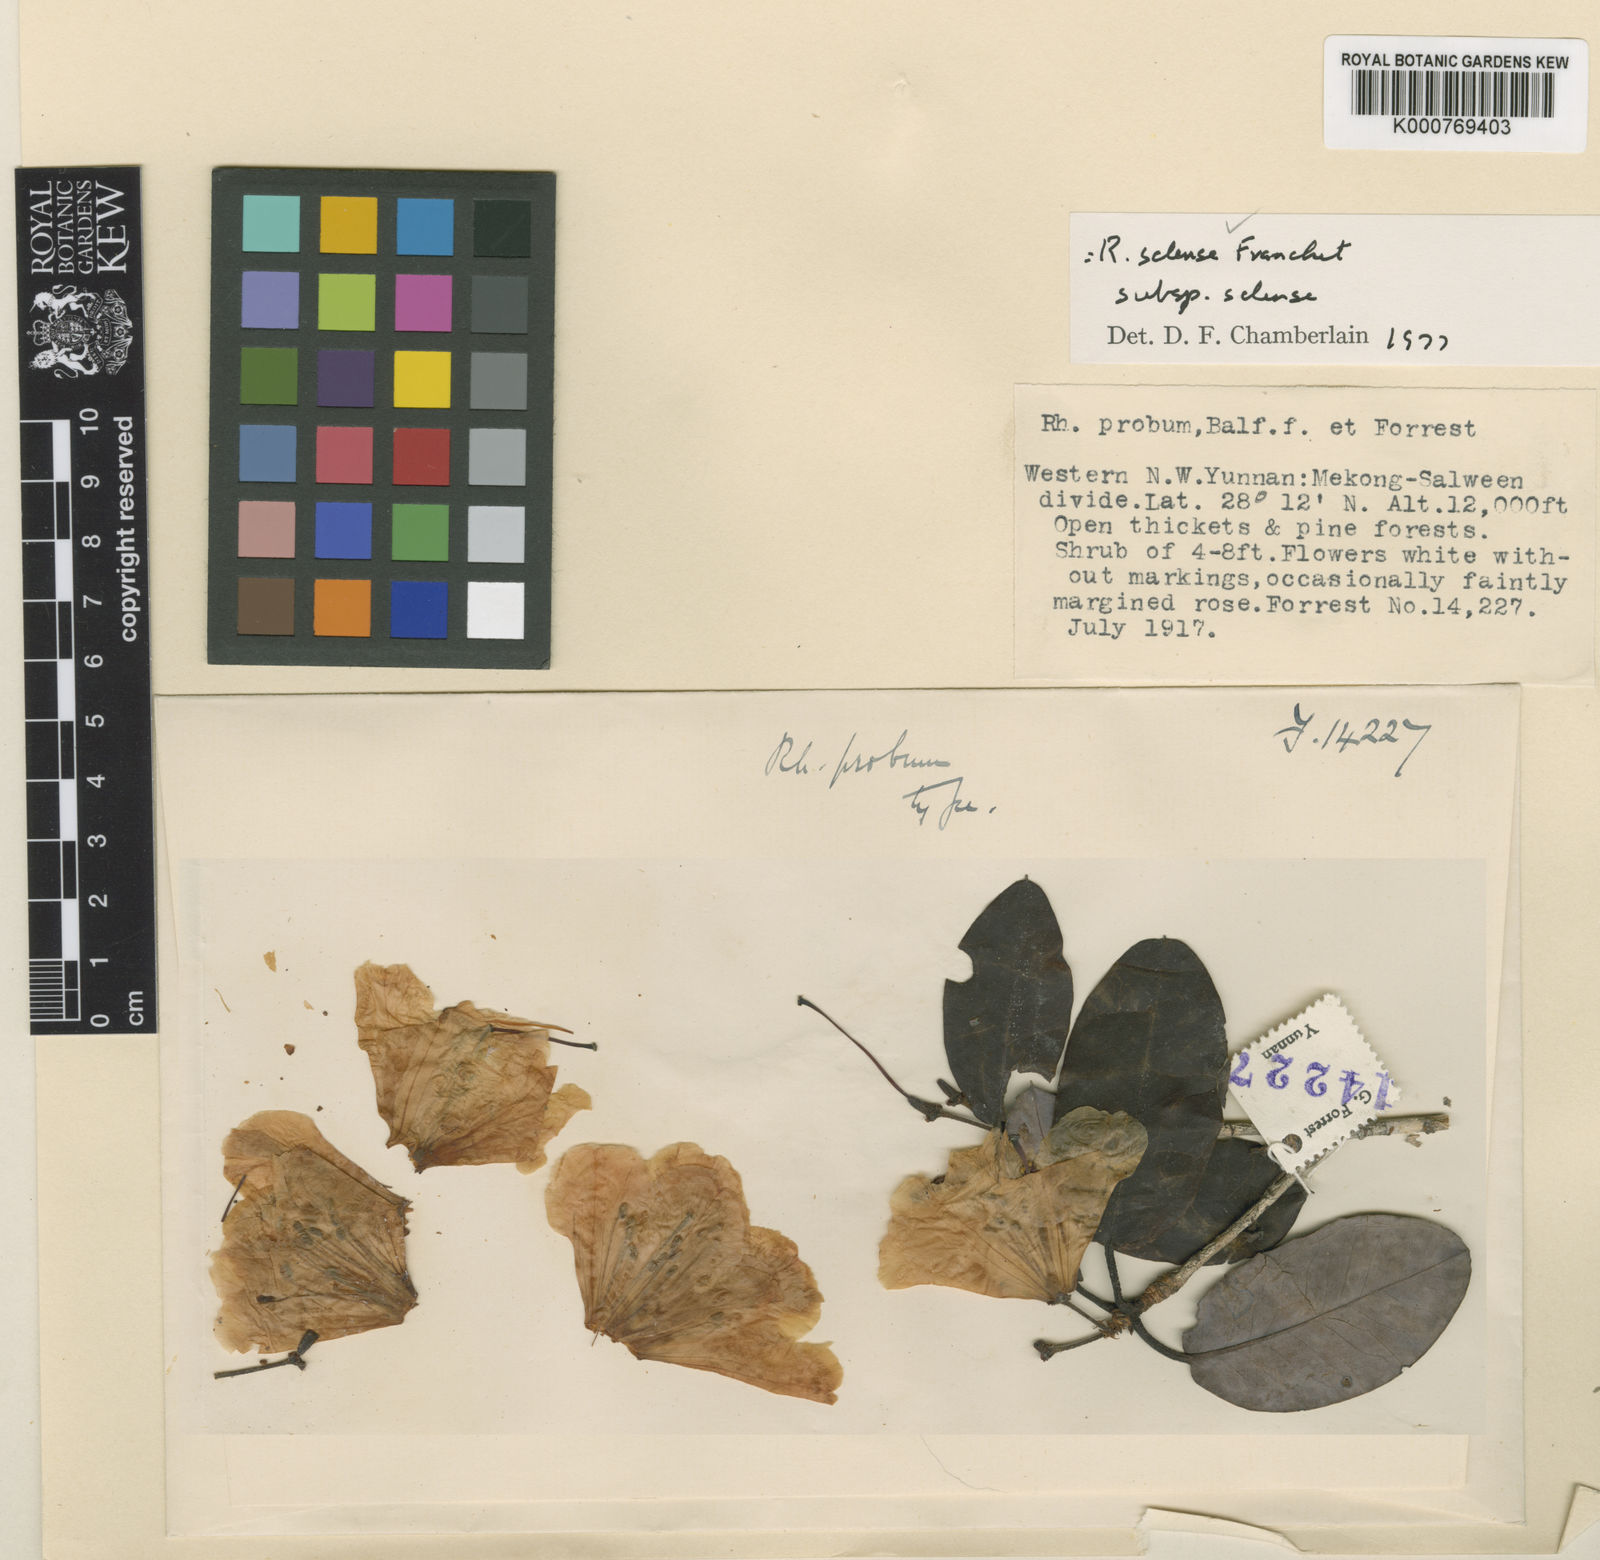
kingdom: Plantae
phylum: Tracheophyta
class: Magnoliopsida
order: Ericales
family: Ericaceae
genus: Rhododendron
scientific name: Rhododendron selense
